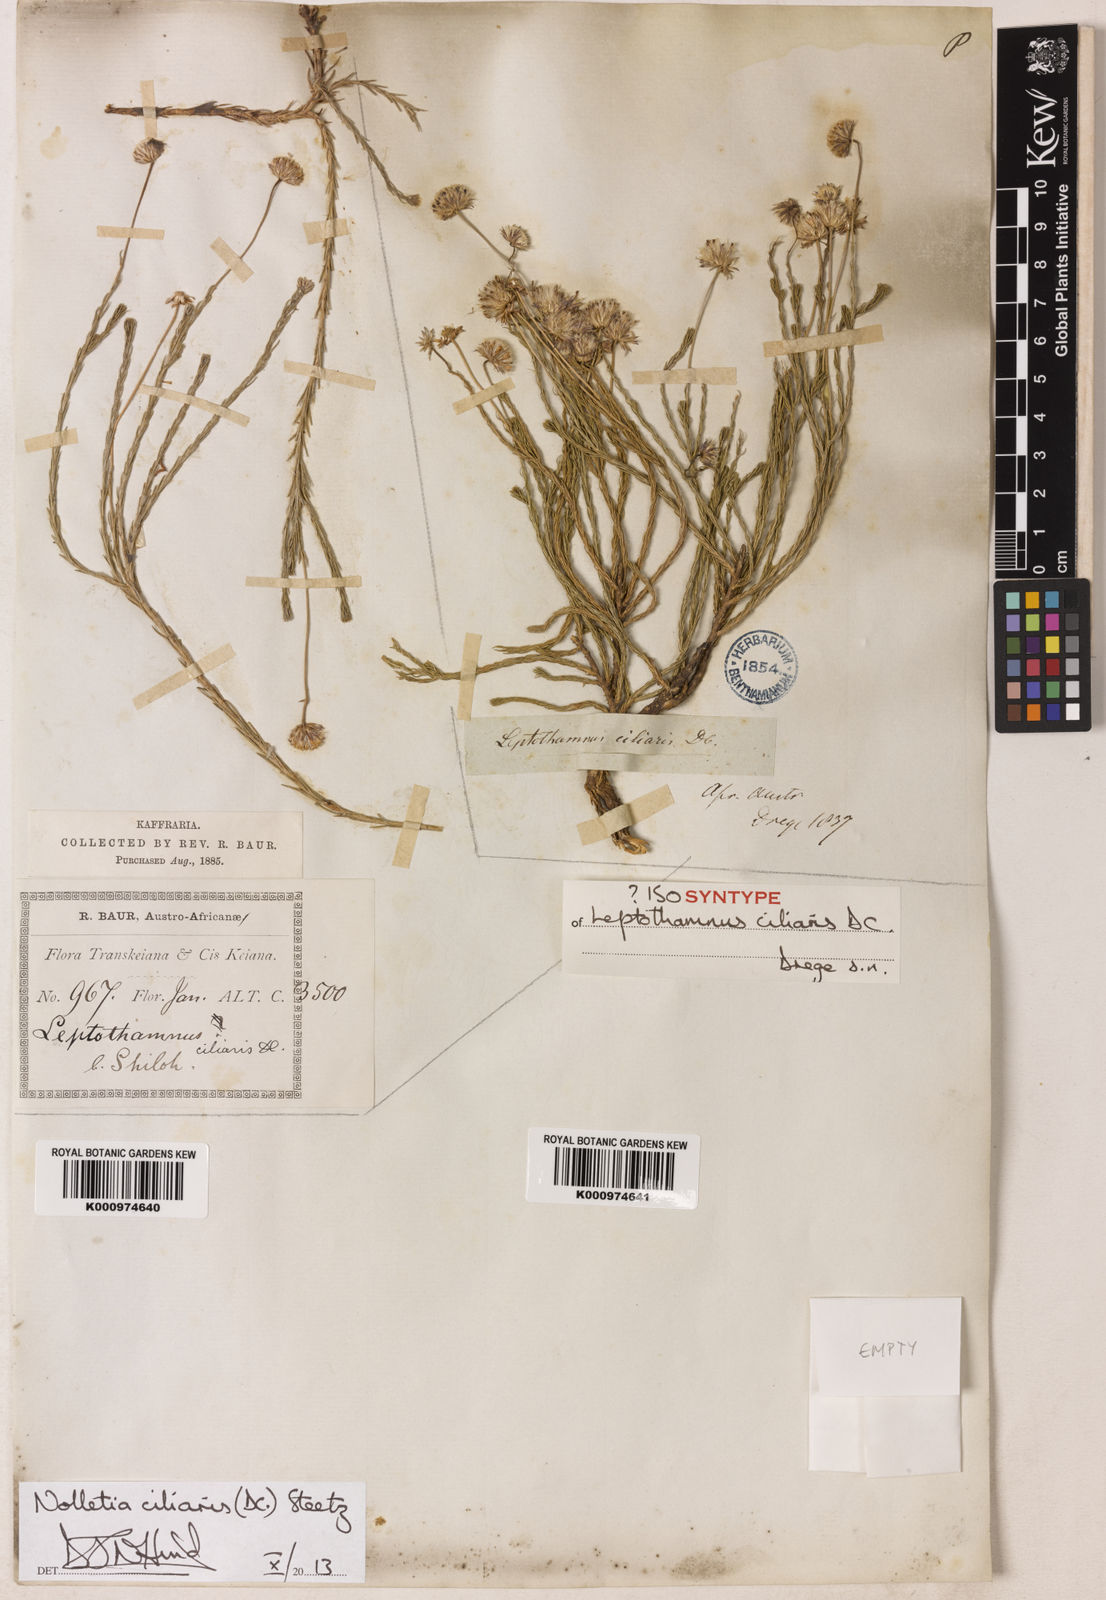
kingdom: Plantae
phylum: Tracheophyta
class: Magnoliopsida
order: Asterales
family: Asteraceae
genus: Nolletia
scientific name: Nolletia ciliaris
